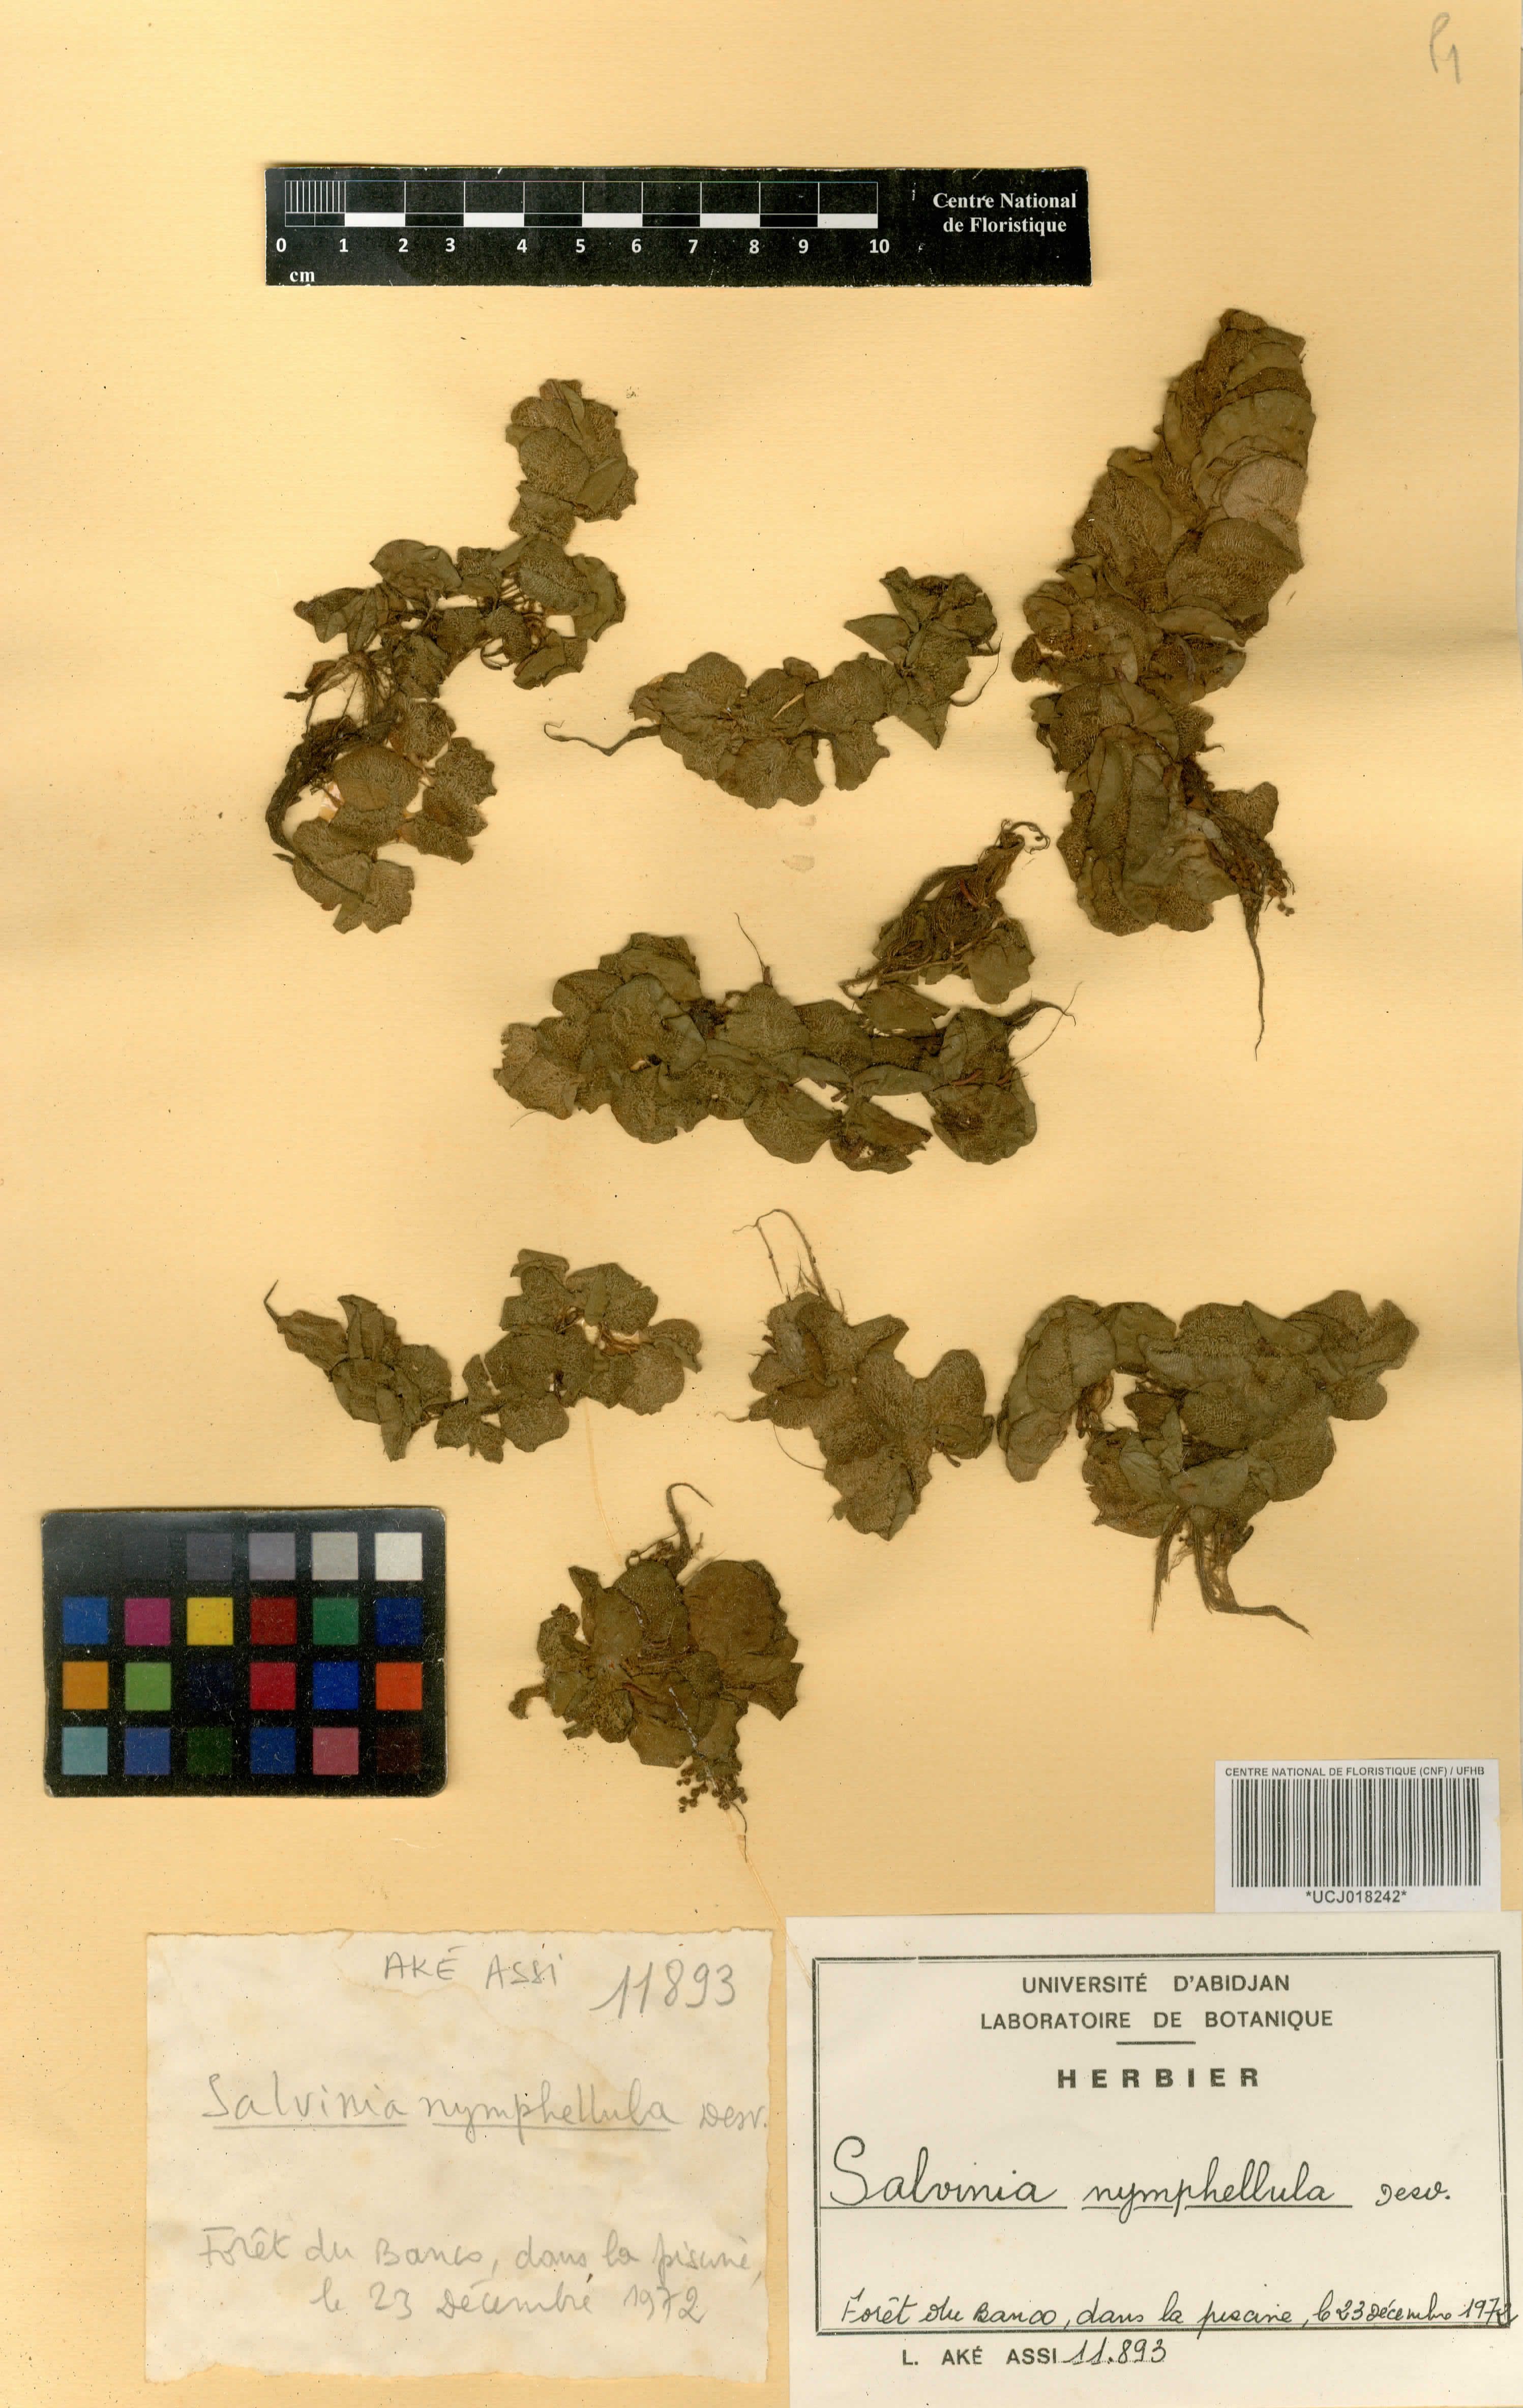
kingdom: Plantae
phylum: Tracheophyta
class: Polypodiopsida
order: Salviniales
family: Salviniaceae
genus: Salvinia
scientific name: Salvinia nymphellula
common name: Floating fern
